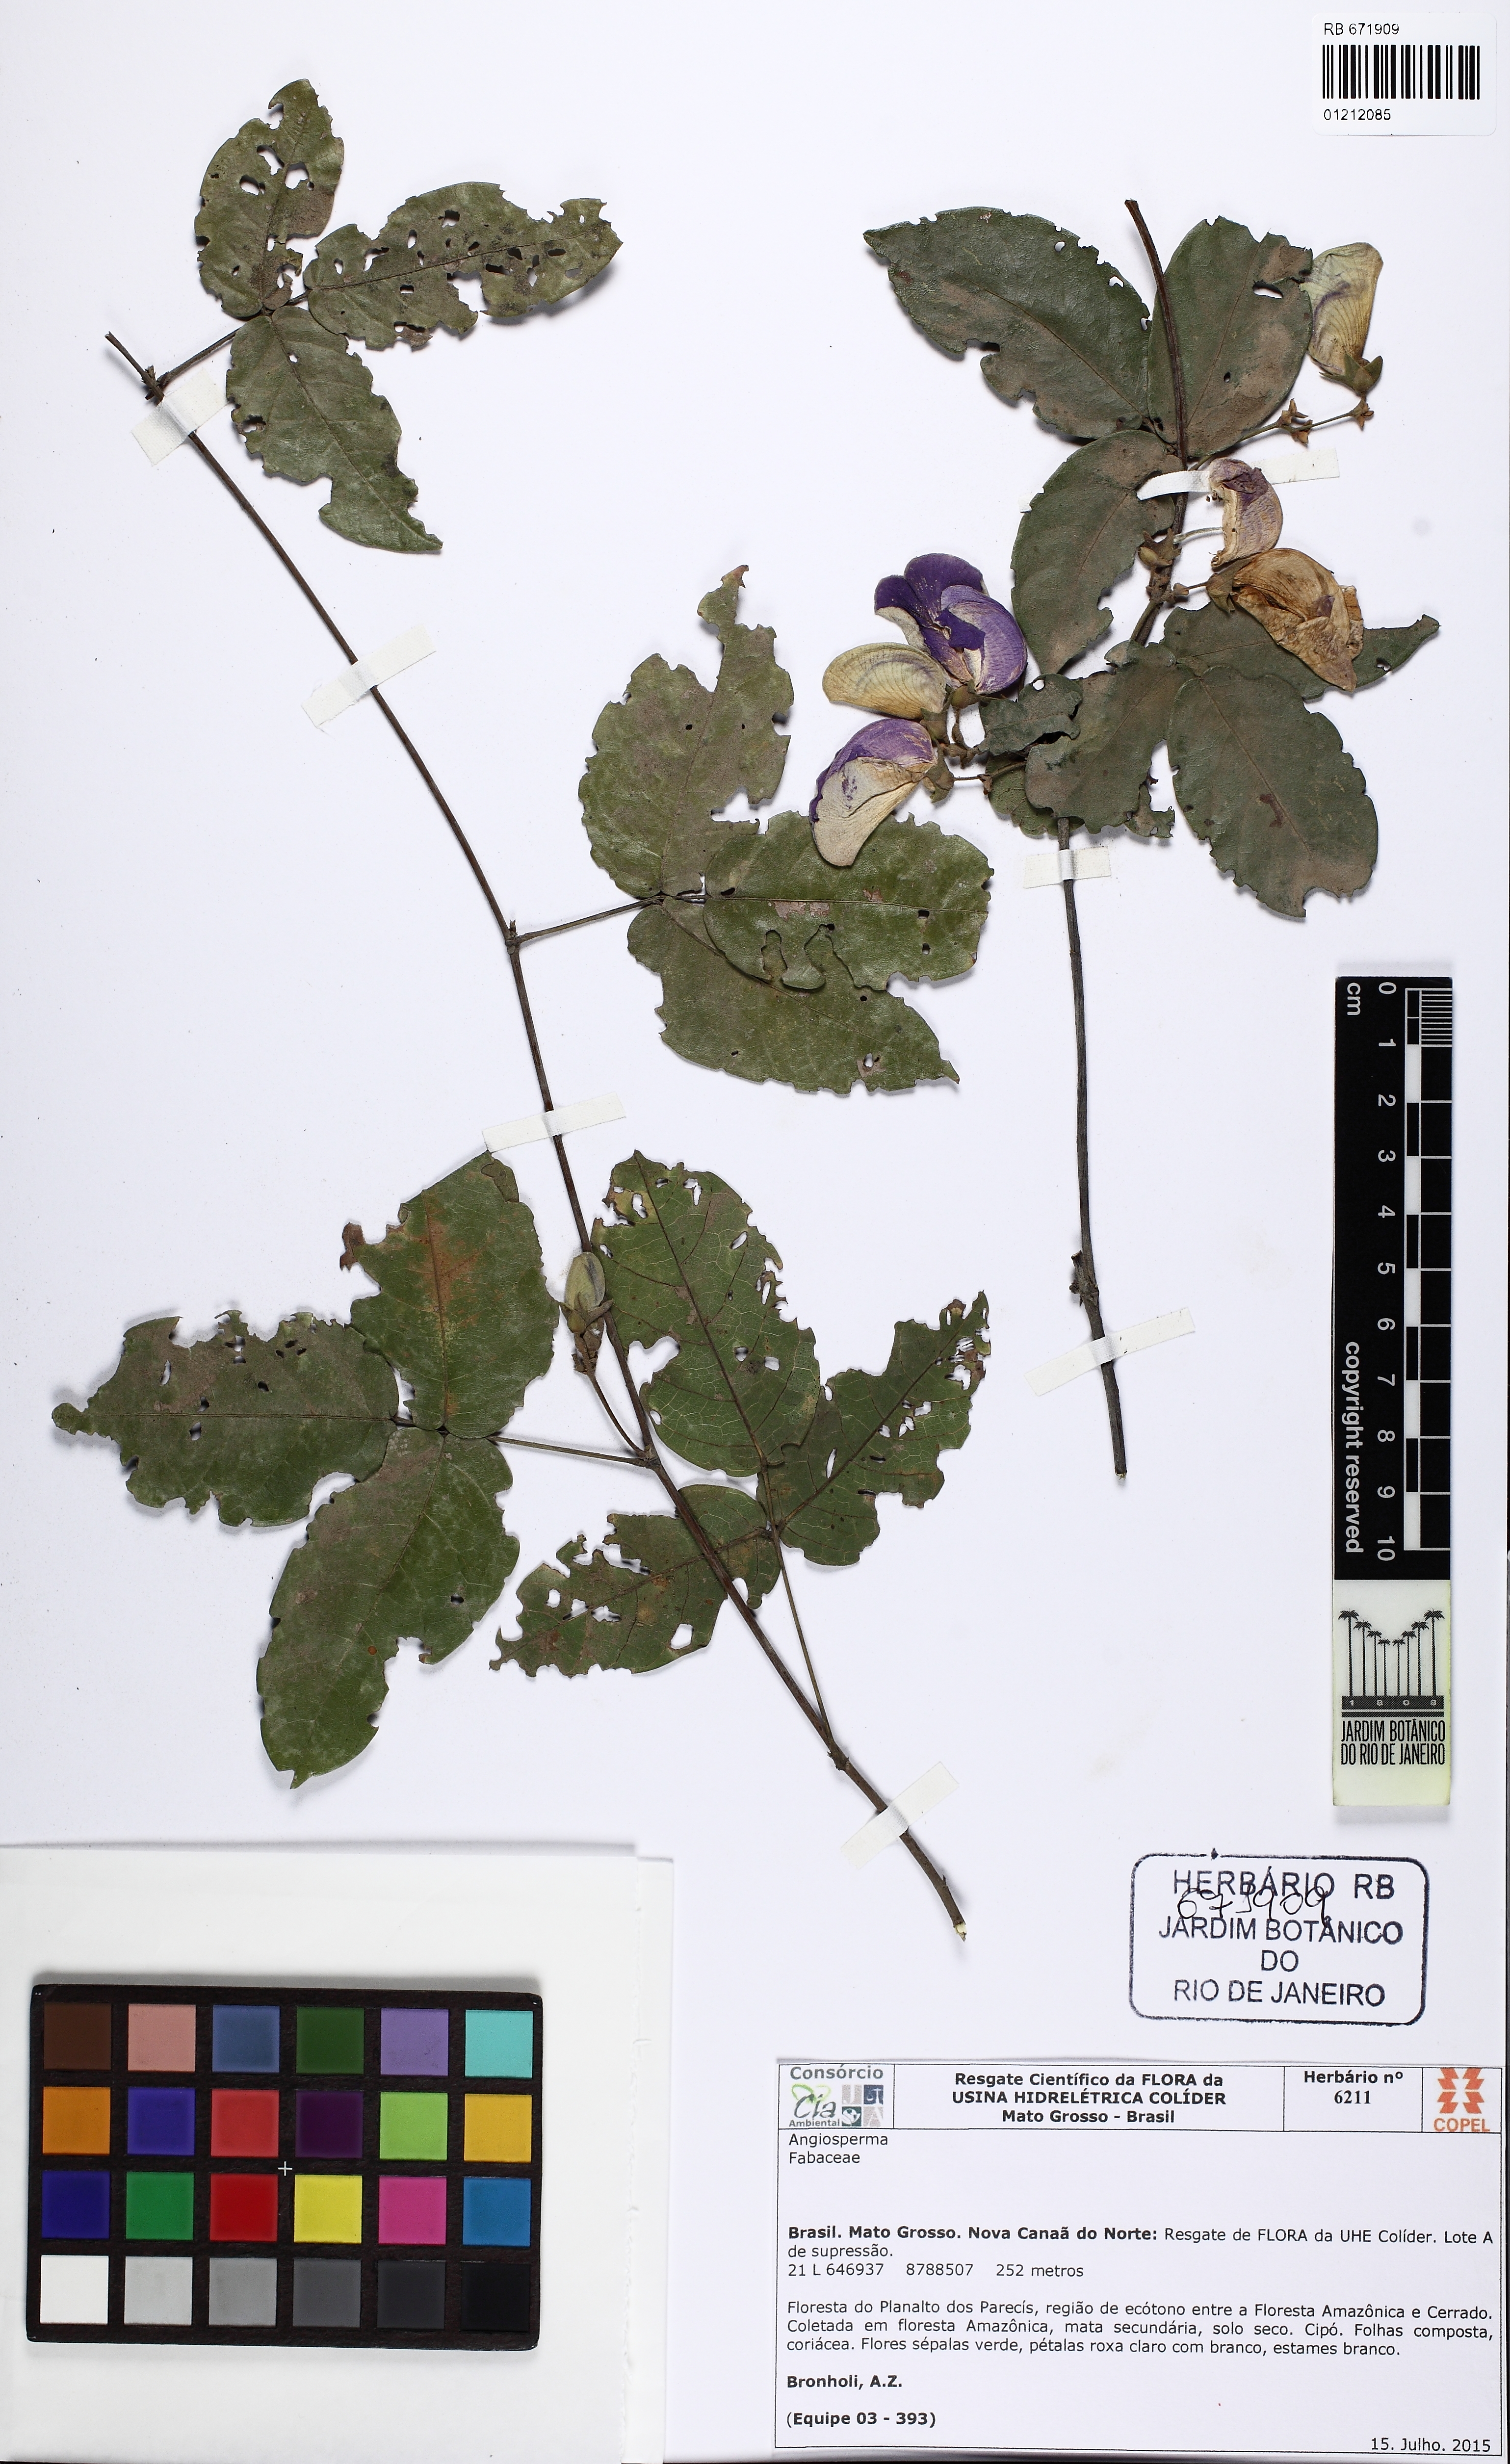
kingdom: Plantae
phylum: Tracheophyta
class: Magnoliopsida
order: Fabales
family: Fabaceae
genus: Periandra
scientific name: Periandra pujalu
